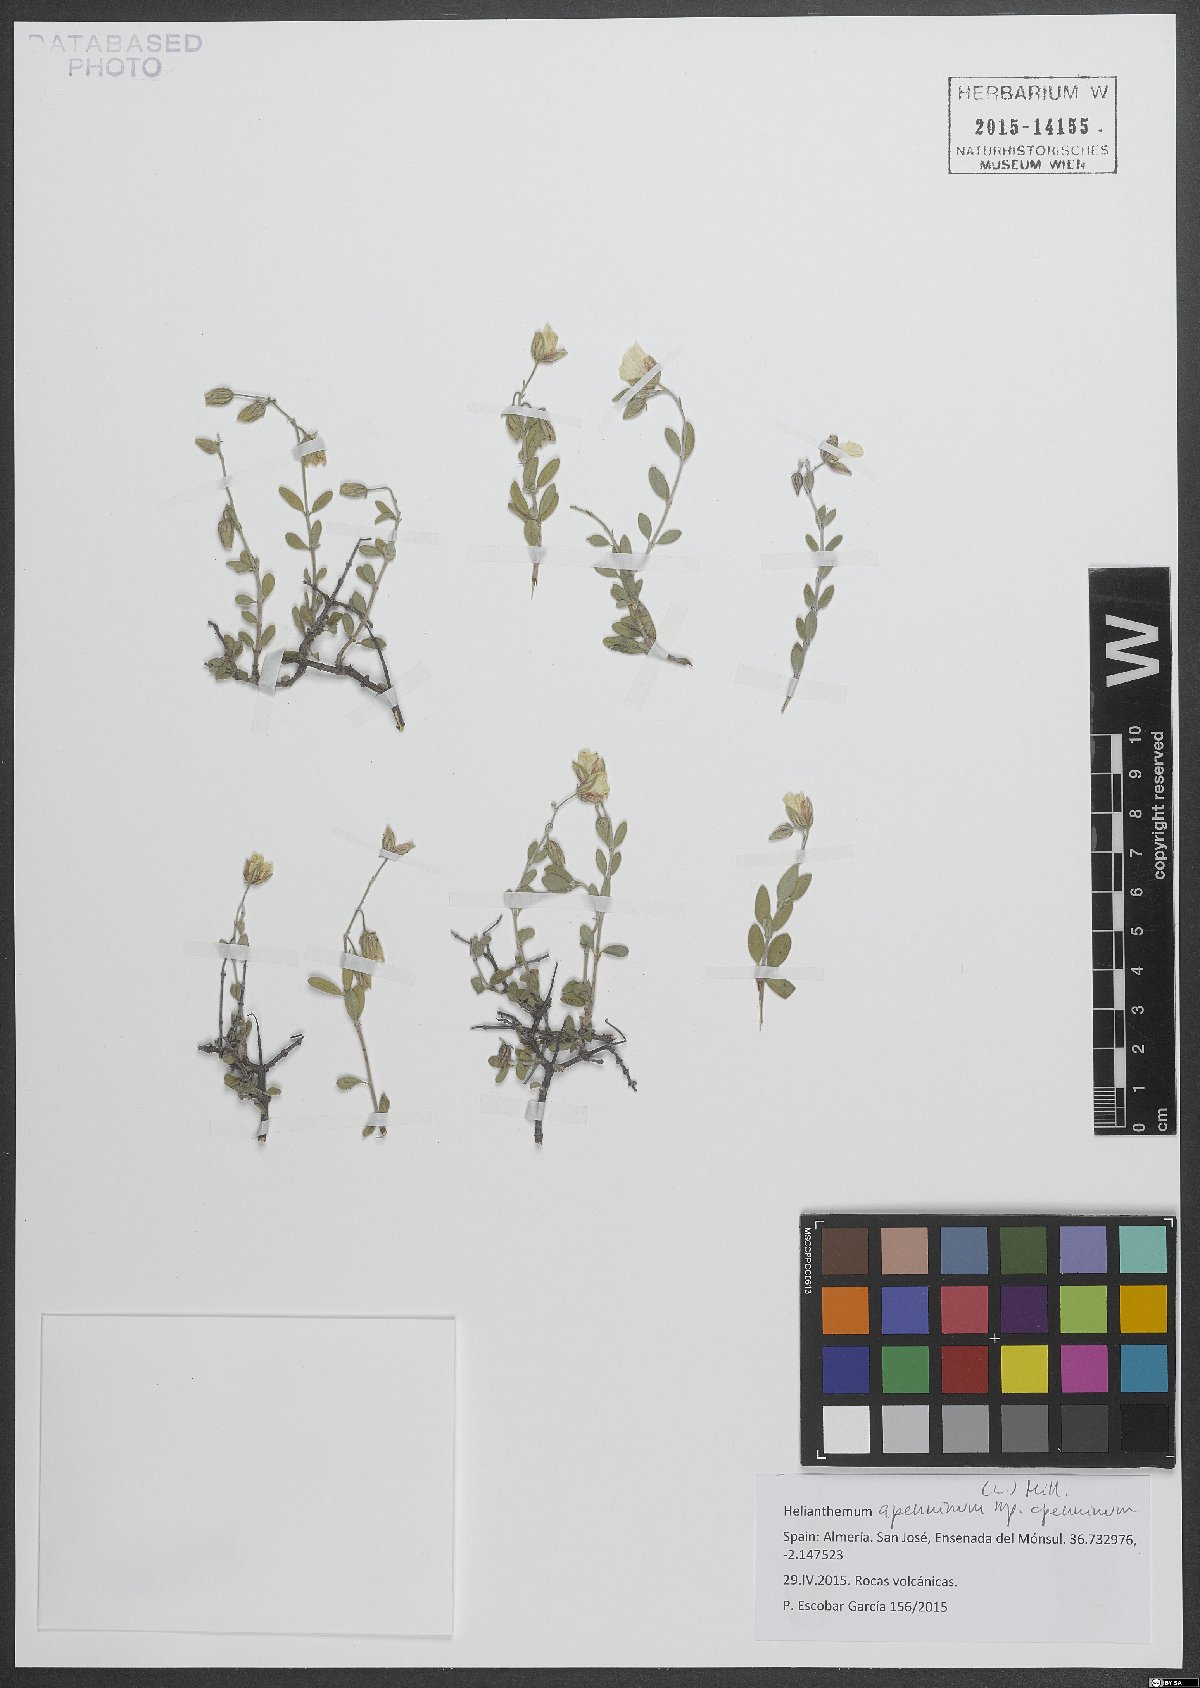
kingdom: Plantae
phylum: Tracheophyta
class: Magnoliopsida
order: Malvales
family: Cistaceae
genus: Helianthemum
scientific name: Helianthemum apenninum
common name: White rock-rose
